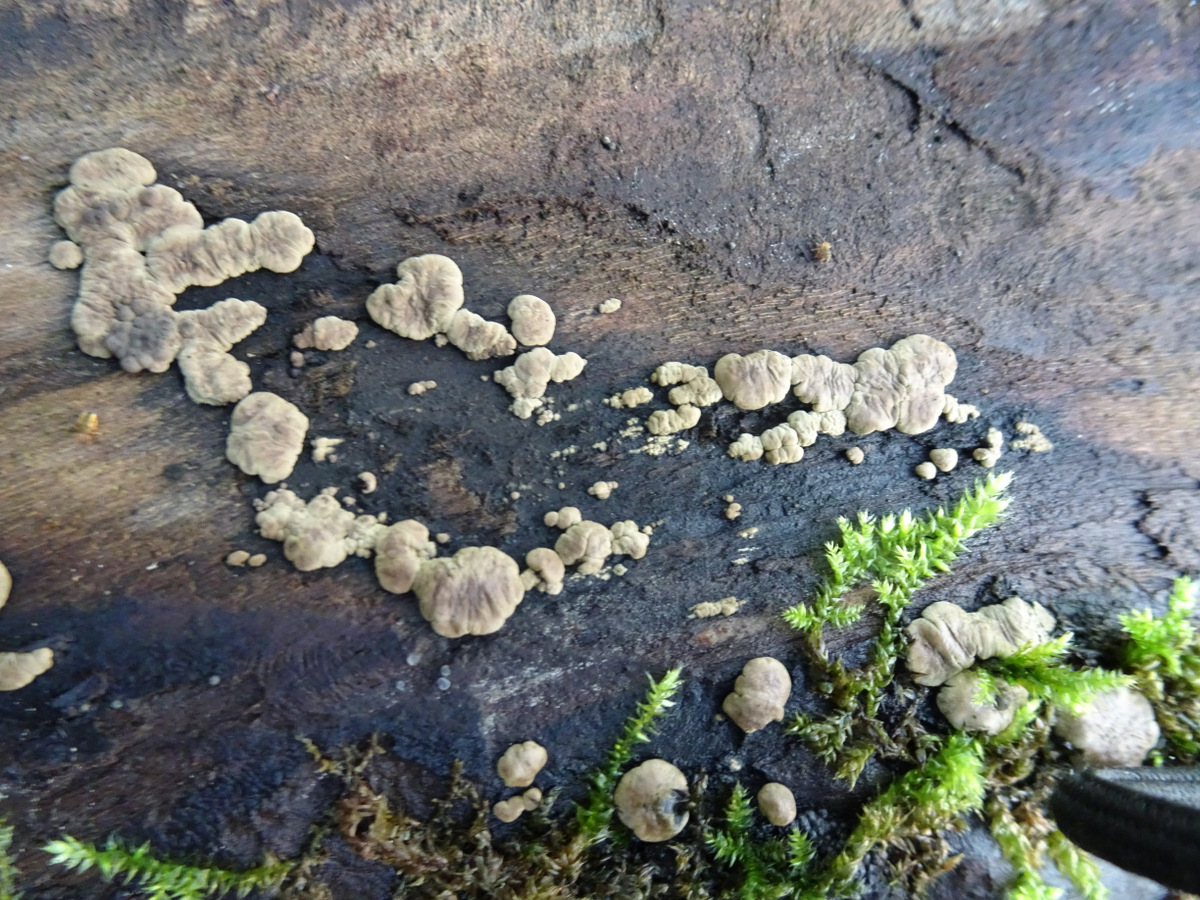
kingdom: Fungi
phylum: Ascomycota
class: Sordariomycetes
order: Xylariales
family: Hypoxylaceae
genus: Jackrogersella
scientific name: Jackrogersella cohaerens
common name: sammenflydende kulbær
